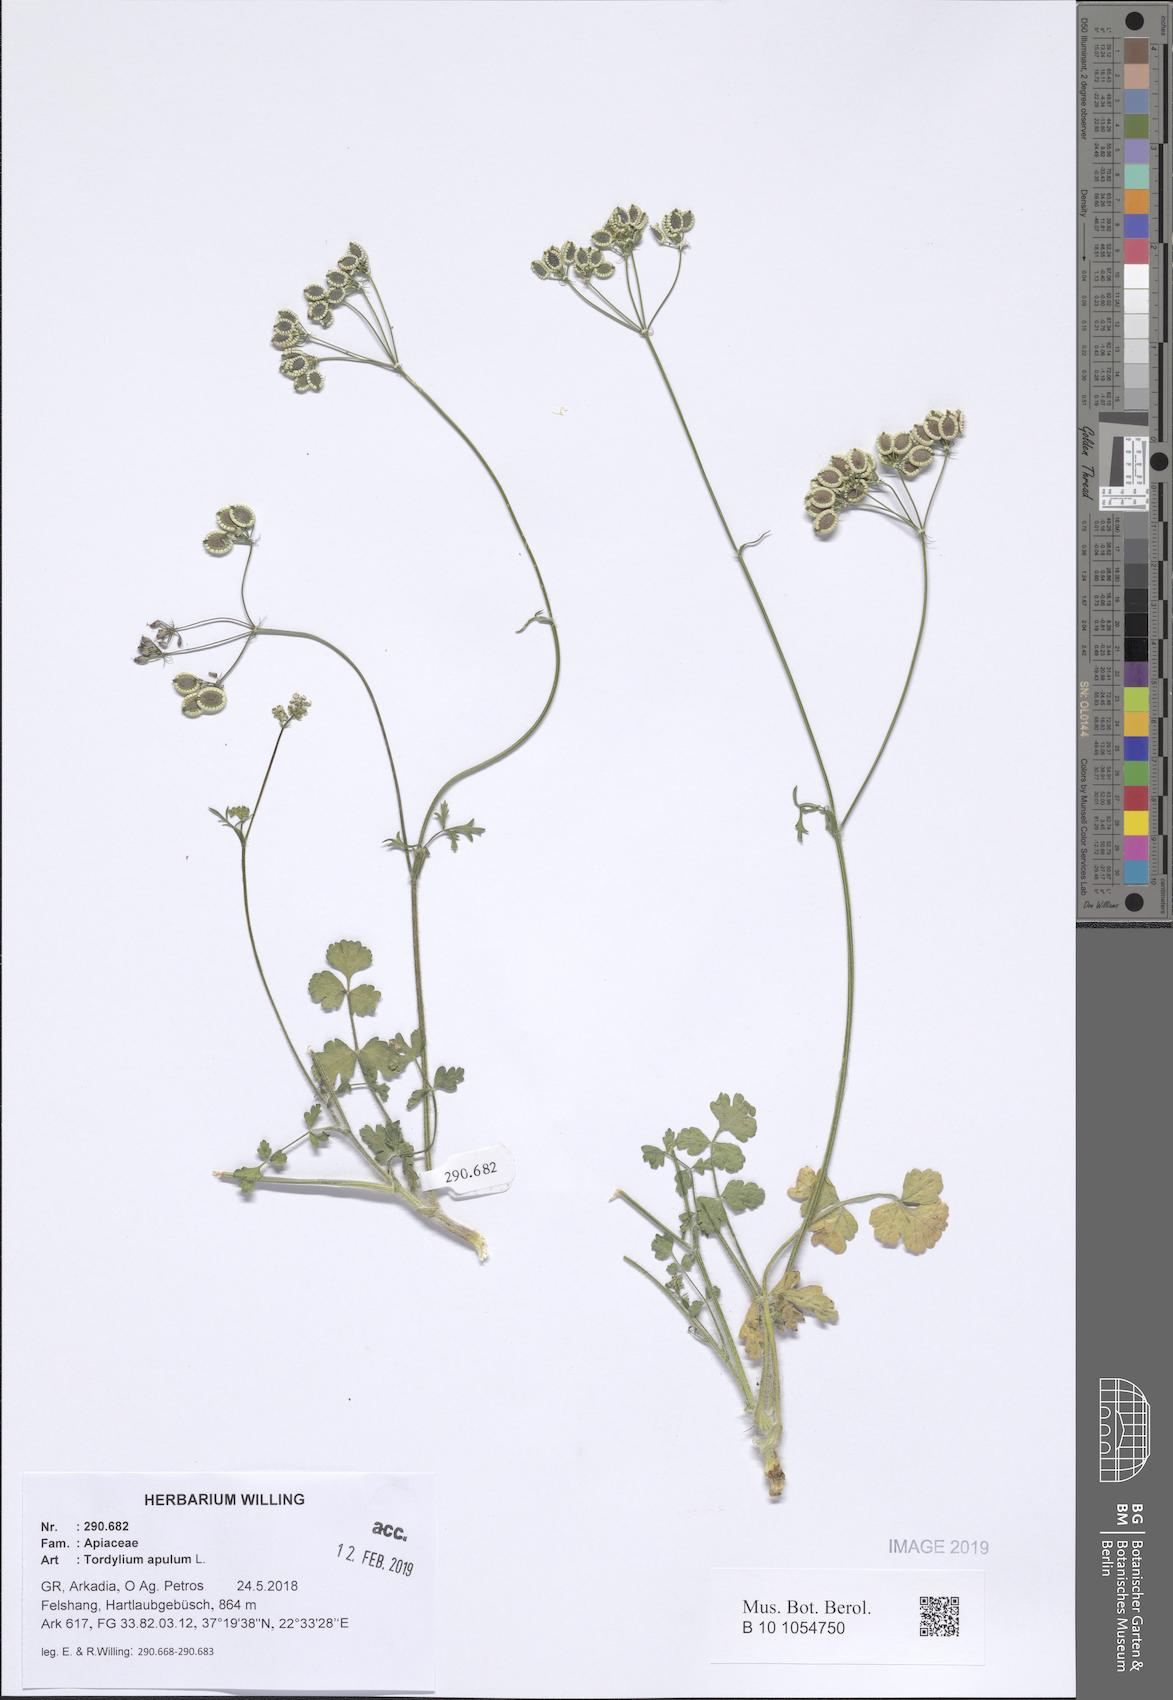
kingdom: Plantae
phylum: Tracheophyta
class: Magnoliopsida
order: Apiales
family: Apiaceae
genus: Tordylium
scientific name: Tordylium apulum
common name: Mediterranean hartwort
